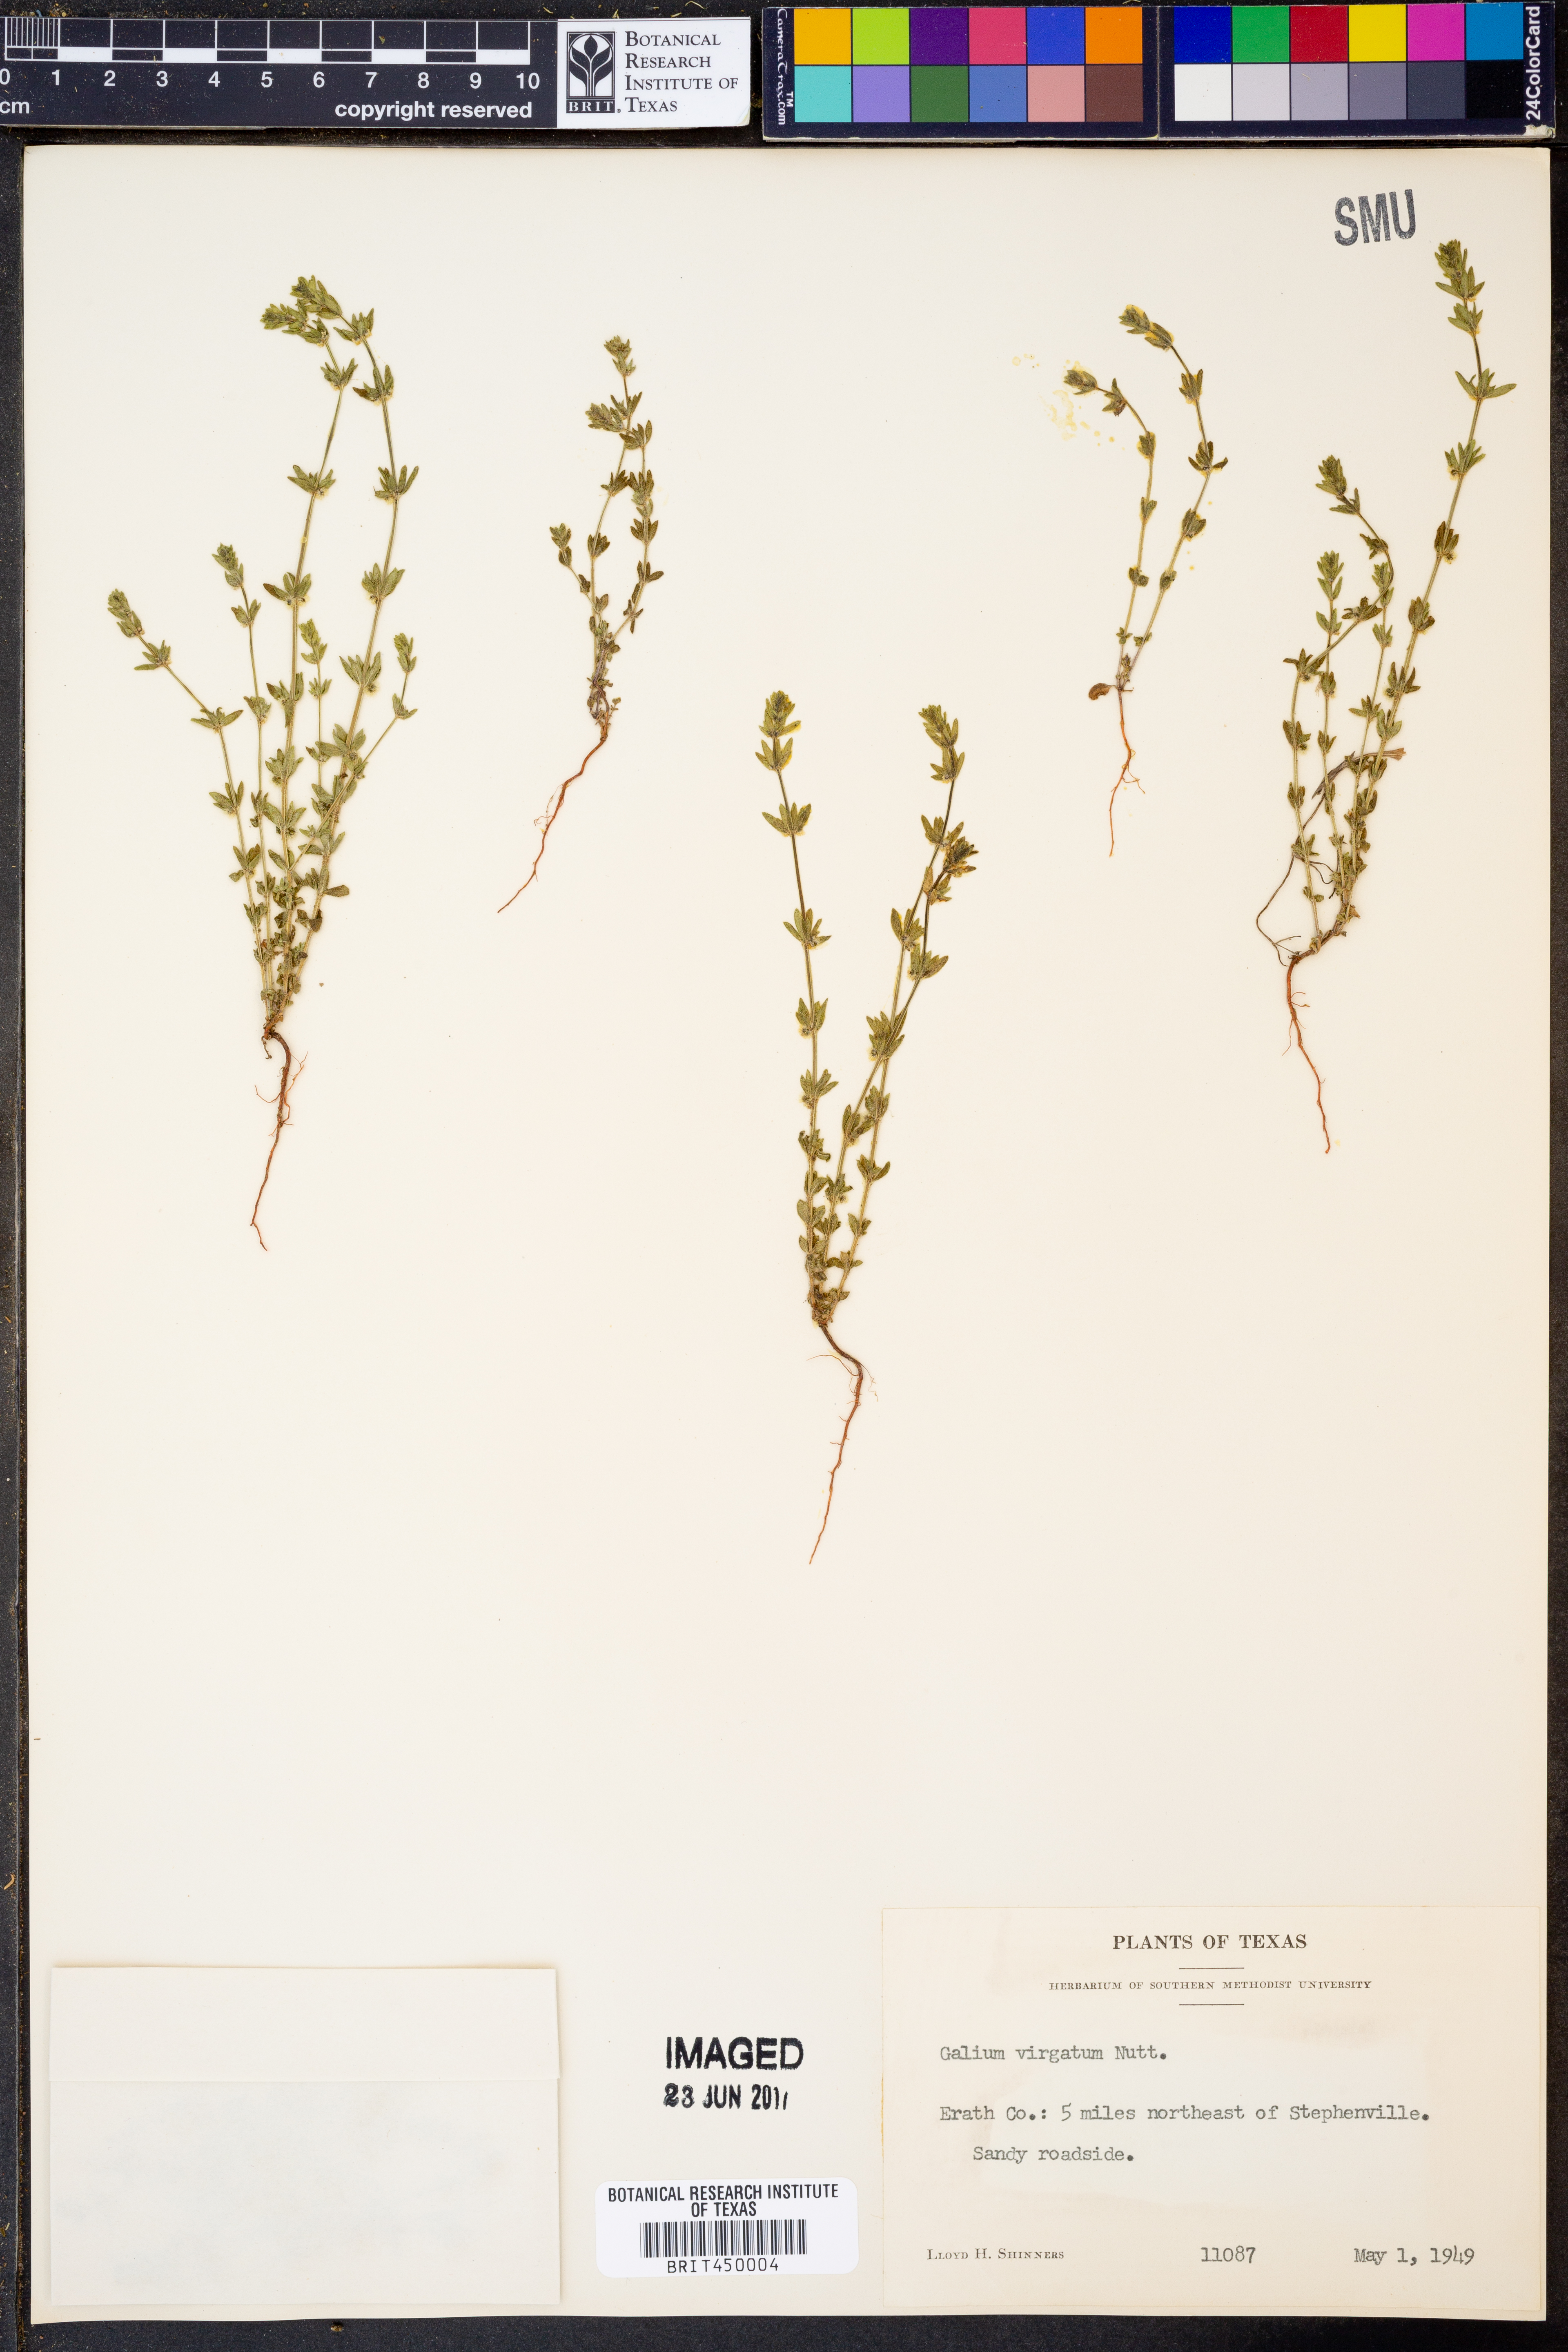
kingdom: Plantae
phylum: Tracheophyta
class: Magnoliopsida
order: Gentianales
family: Rubiaceae
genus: Galium
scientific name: Galium virgatum
